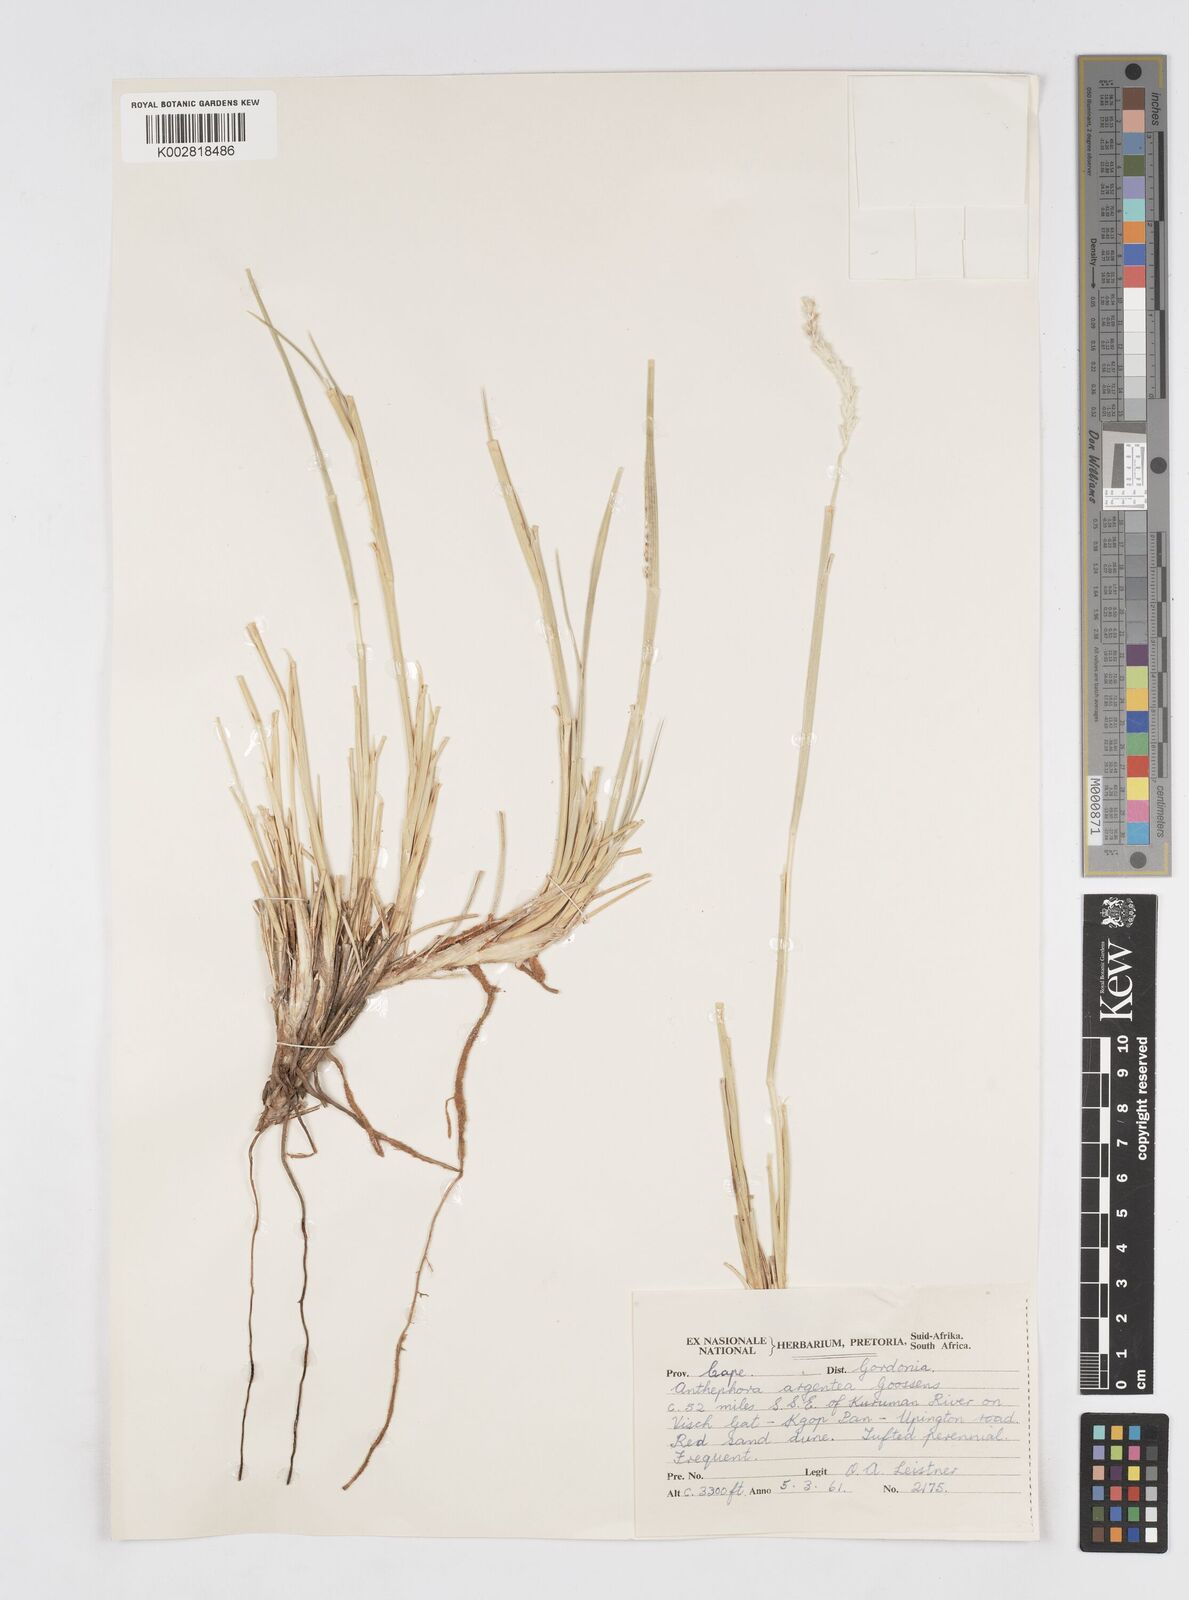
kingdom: Plantae
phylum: Tracheophyta
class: Liliopsida
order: Poales
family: Poaceae
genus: Anthephora
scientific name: Anthephora argentea
